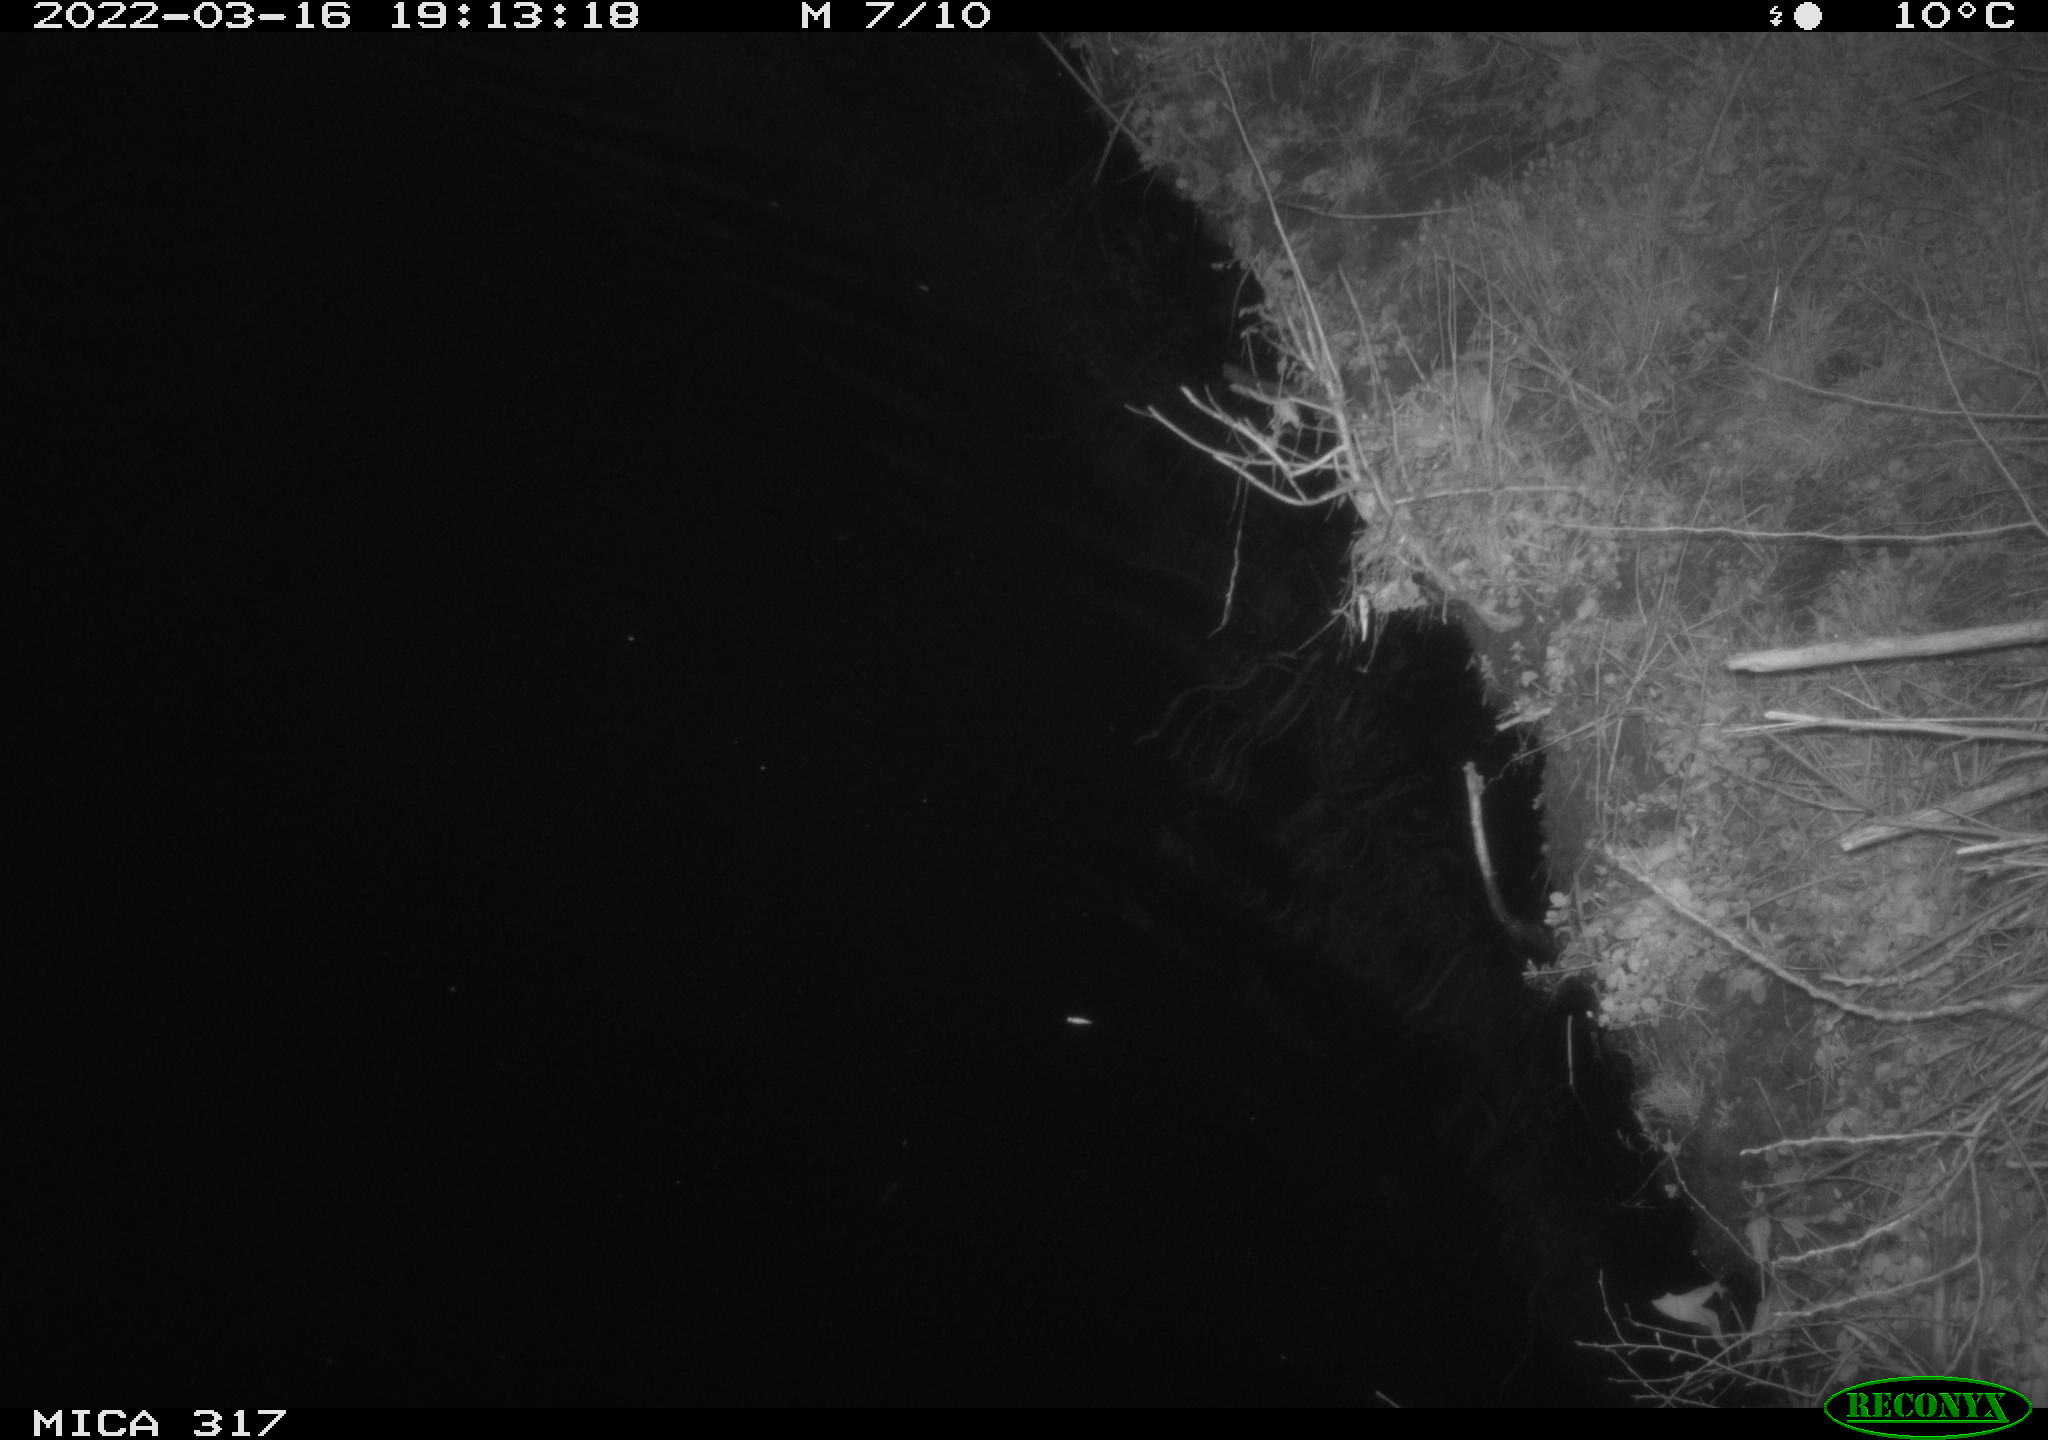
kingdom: Animalia
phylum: Chordata
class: Aves
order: Anseriformes
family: Anatidae
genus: Anas
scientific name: Anas platyrhynchos
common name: Mallard
